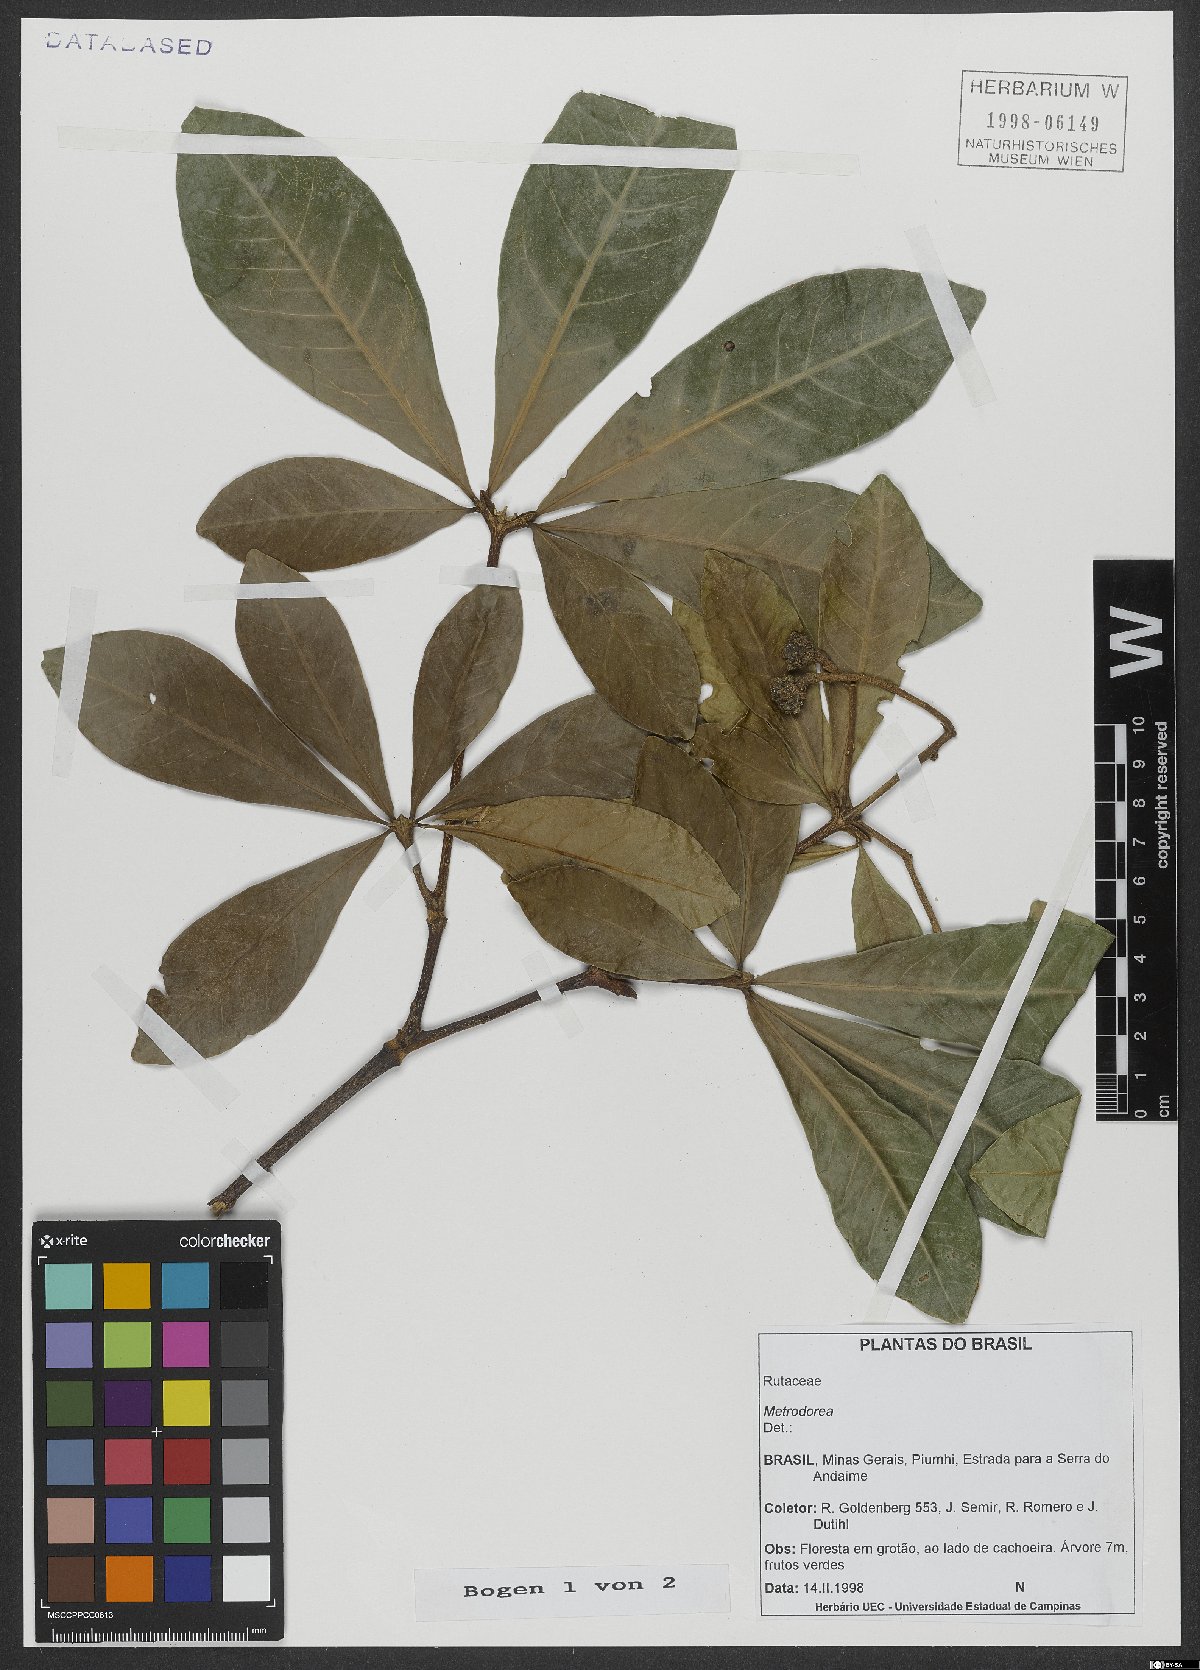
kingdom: Plantae
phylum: Tracheophyta
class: Magnoliopsida
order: Sapindales
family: Rutaceae
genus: Metrodorea
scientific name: Metrodorea
